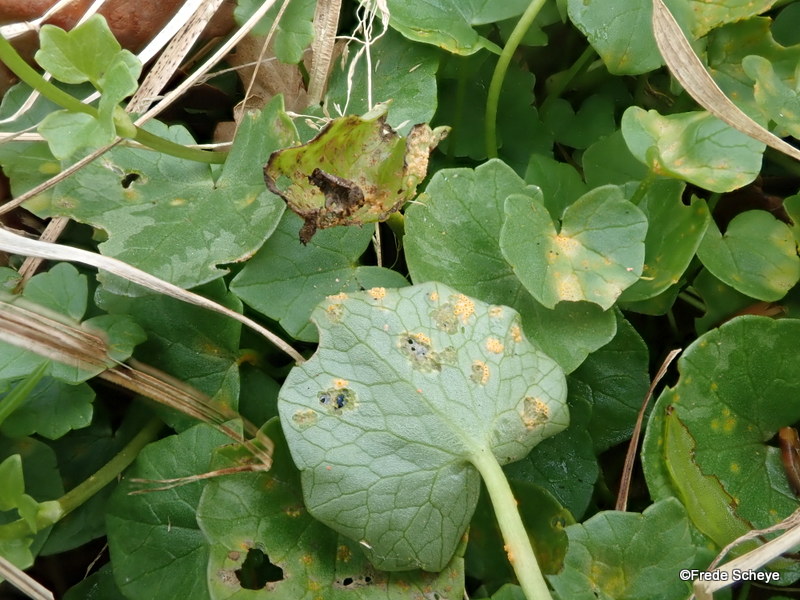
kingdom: Fungi
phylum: Basidiomycota
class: Pucciniomycetes
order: Pucciniales
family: Pucciniaceae
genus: Uromyces
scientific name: Uromyces dactylidis
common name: ranunkel-encellerust
